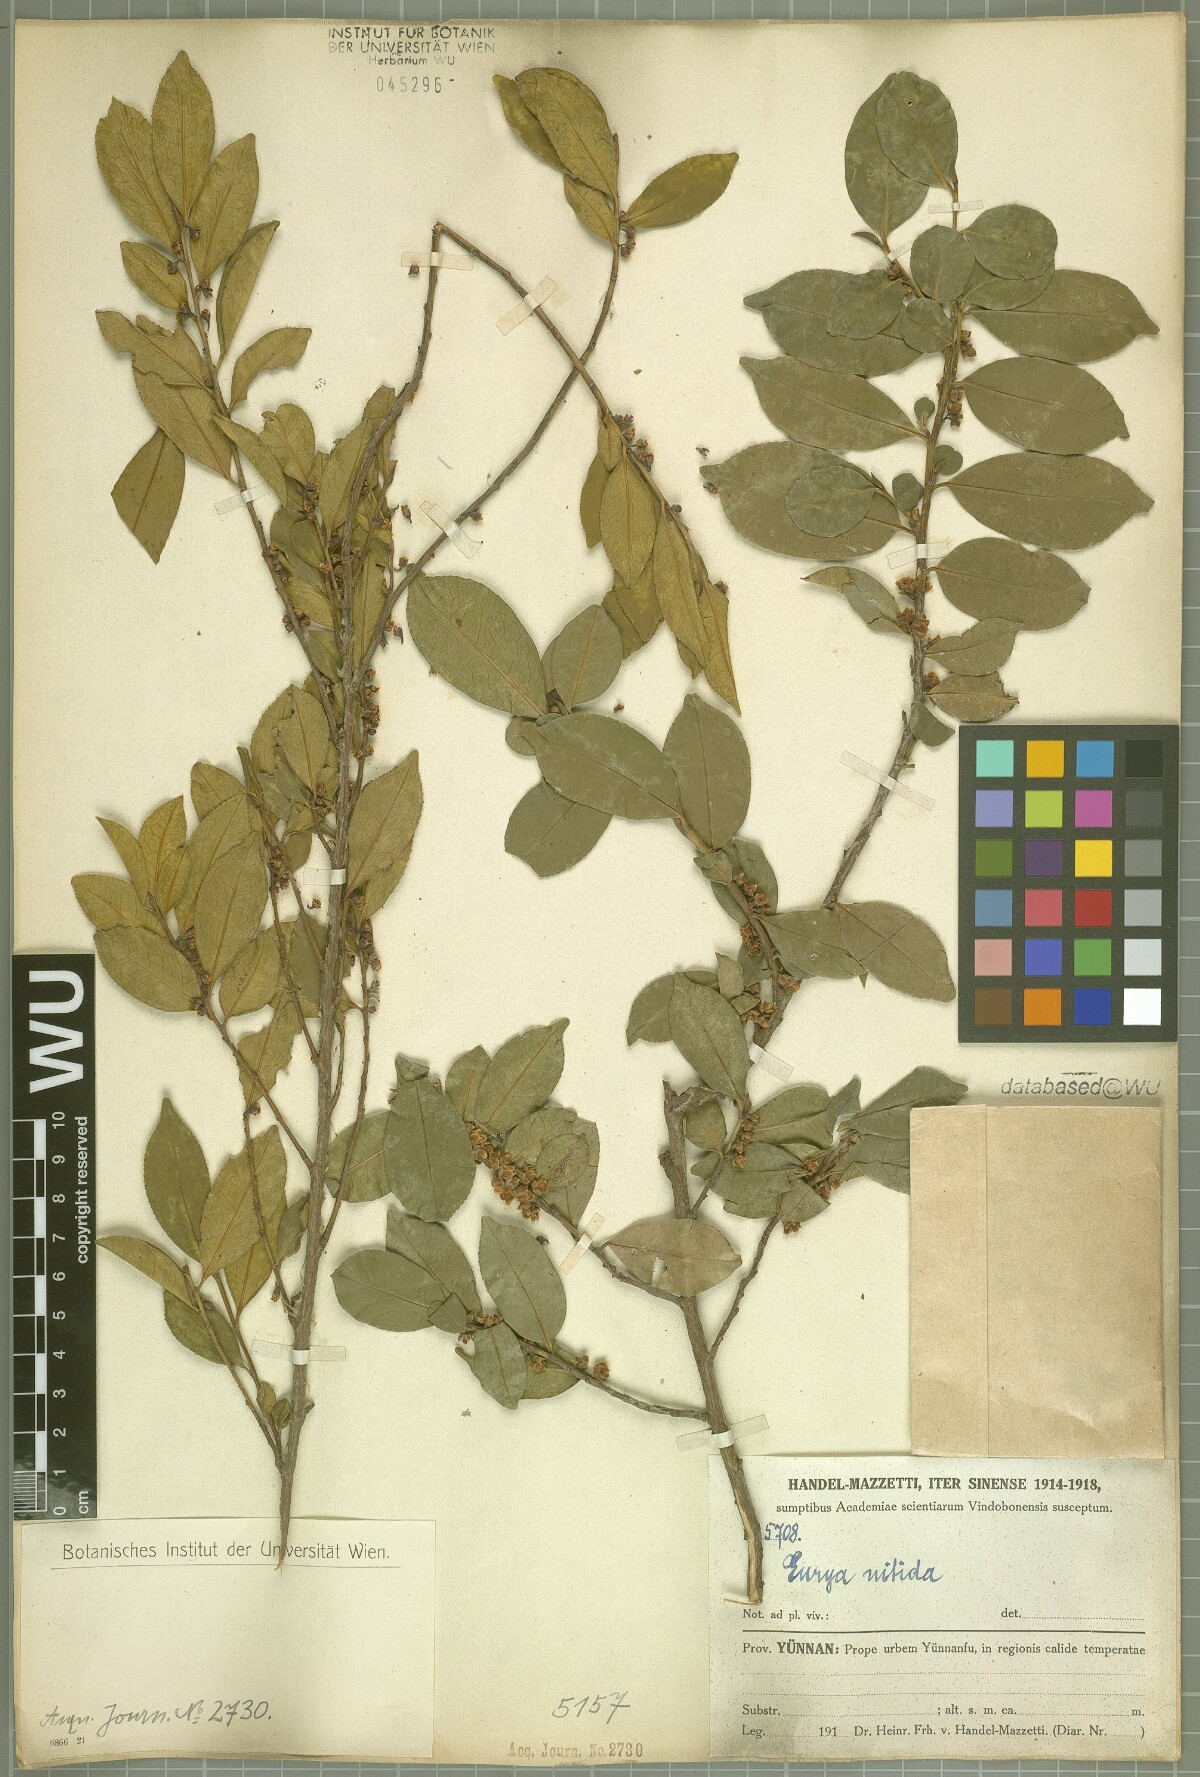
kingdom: Plantae
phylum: Tracheophyta
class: Magnoliopsida
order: Ericales
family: Pentaphylacaceae
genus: Eurya
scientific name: Eurya nitida
